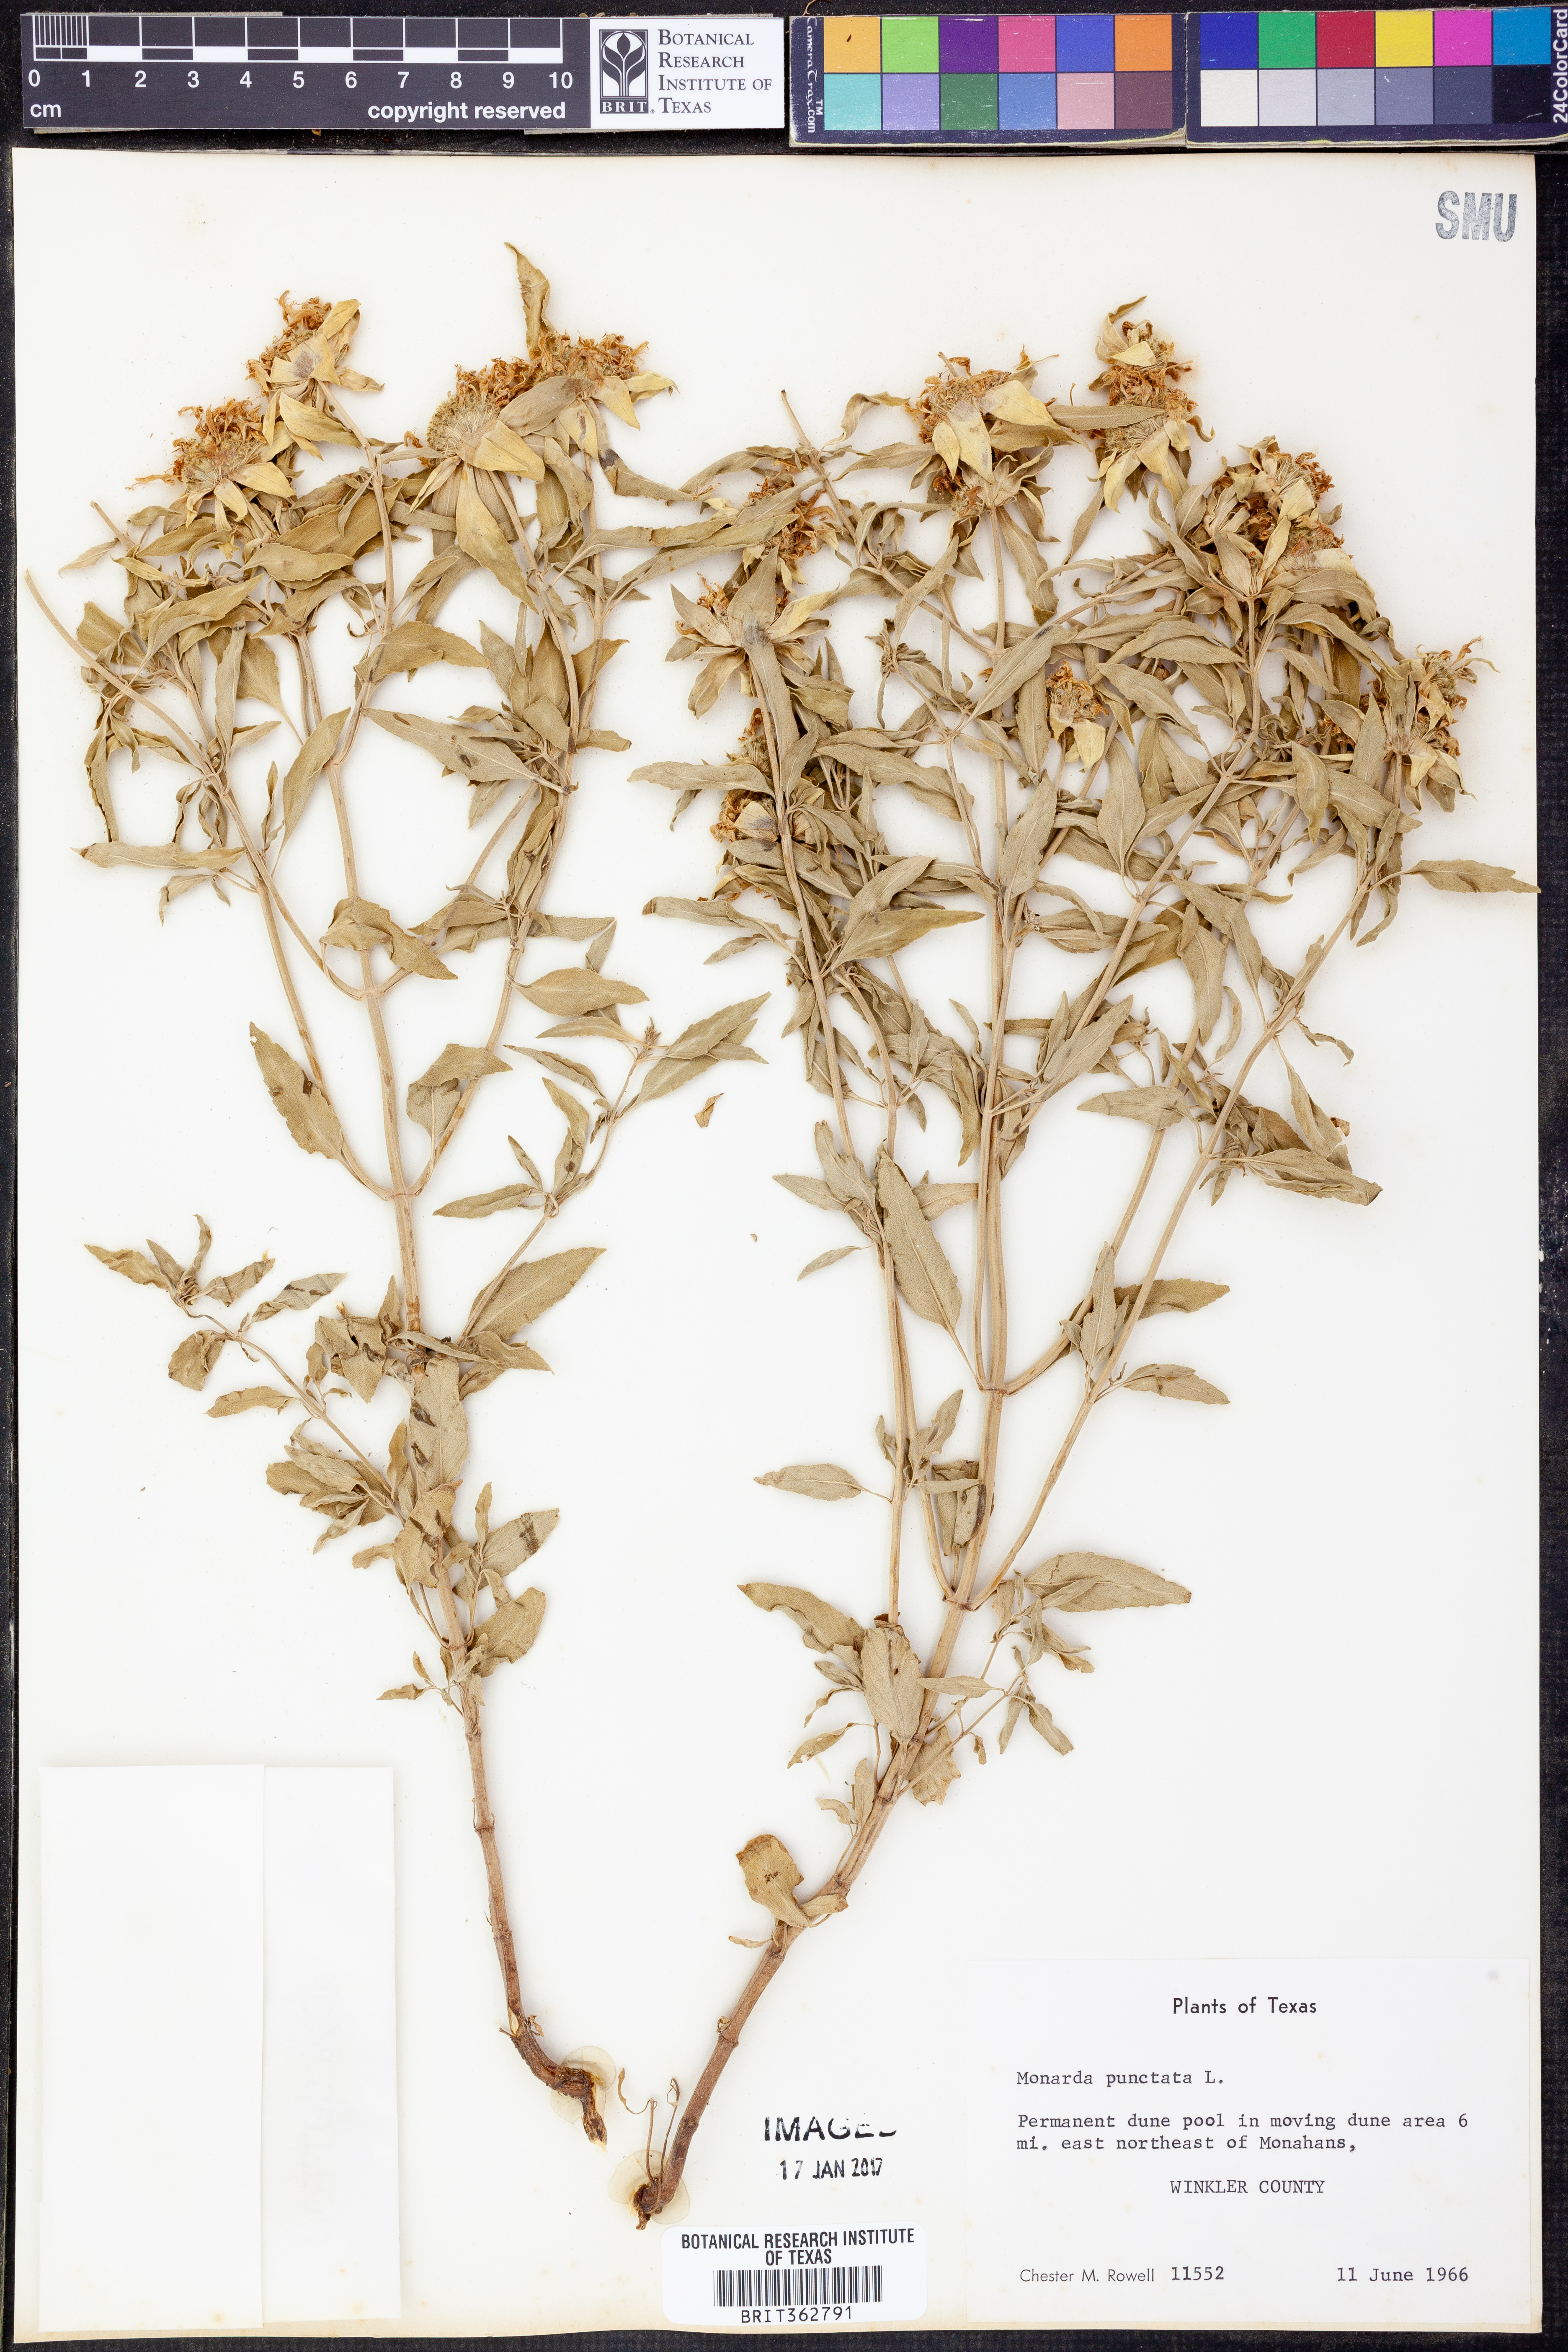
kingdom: Plantae
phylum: Tracheophyta
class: Magnoliopsida
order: Lamiales
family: Lamiaceae
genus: Monarda
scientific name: Monarda punctata
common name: Dotted monarda
